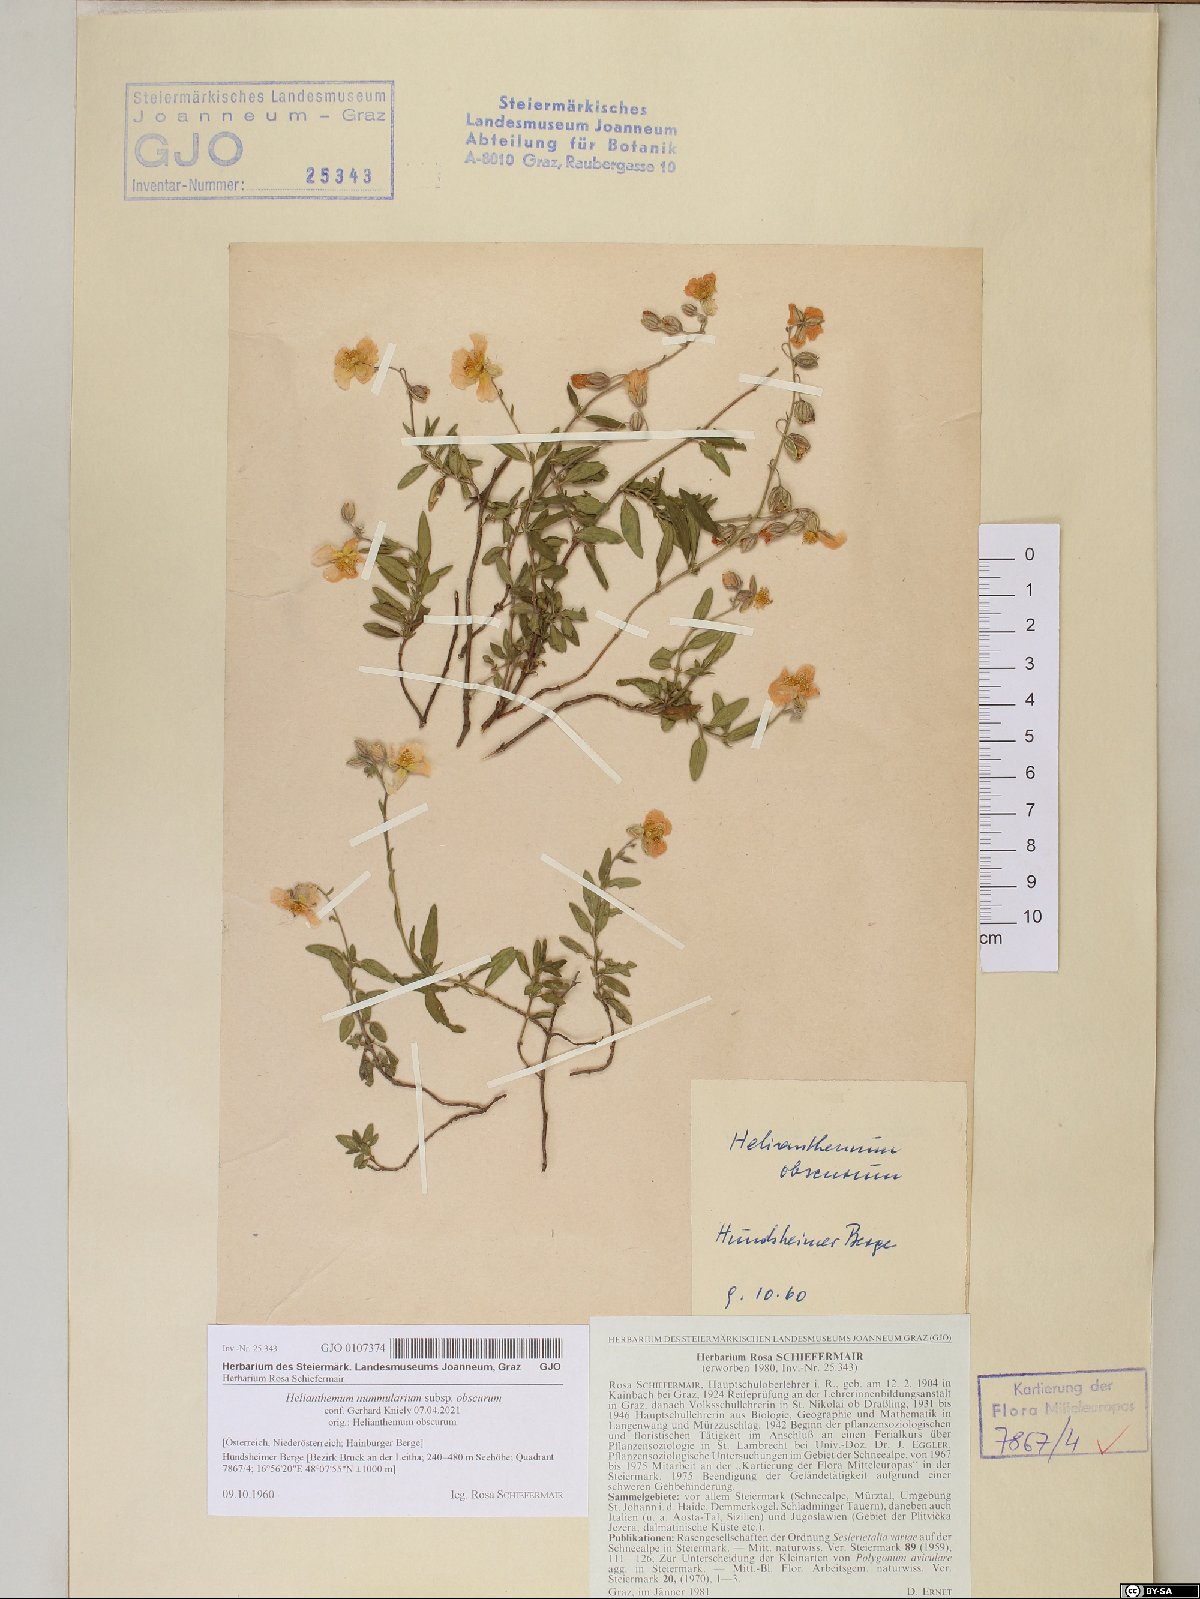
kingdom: Plantae
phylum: Tracheophyta
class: Magnoliopsida
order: Malvales
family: Cistaceae
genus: Helianthemum
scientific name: Helianthemum nummularium
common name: Common rock-rose
